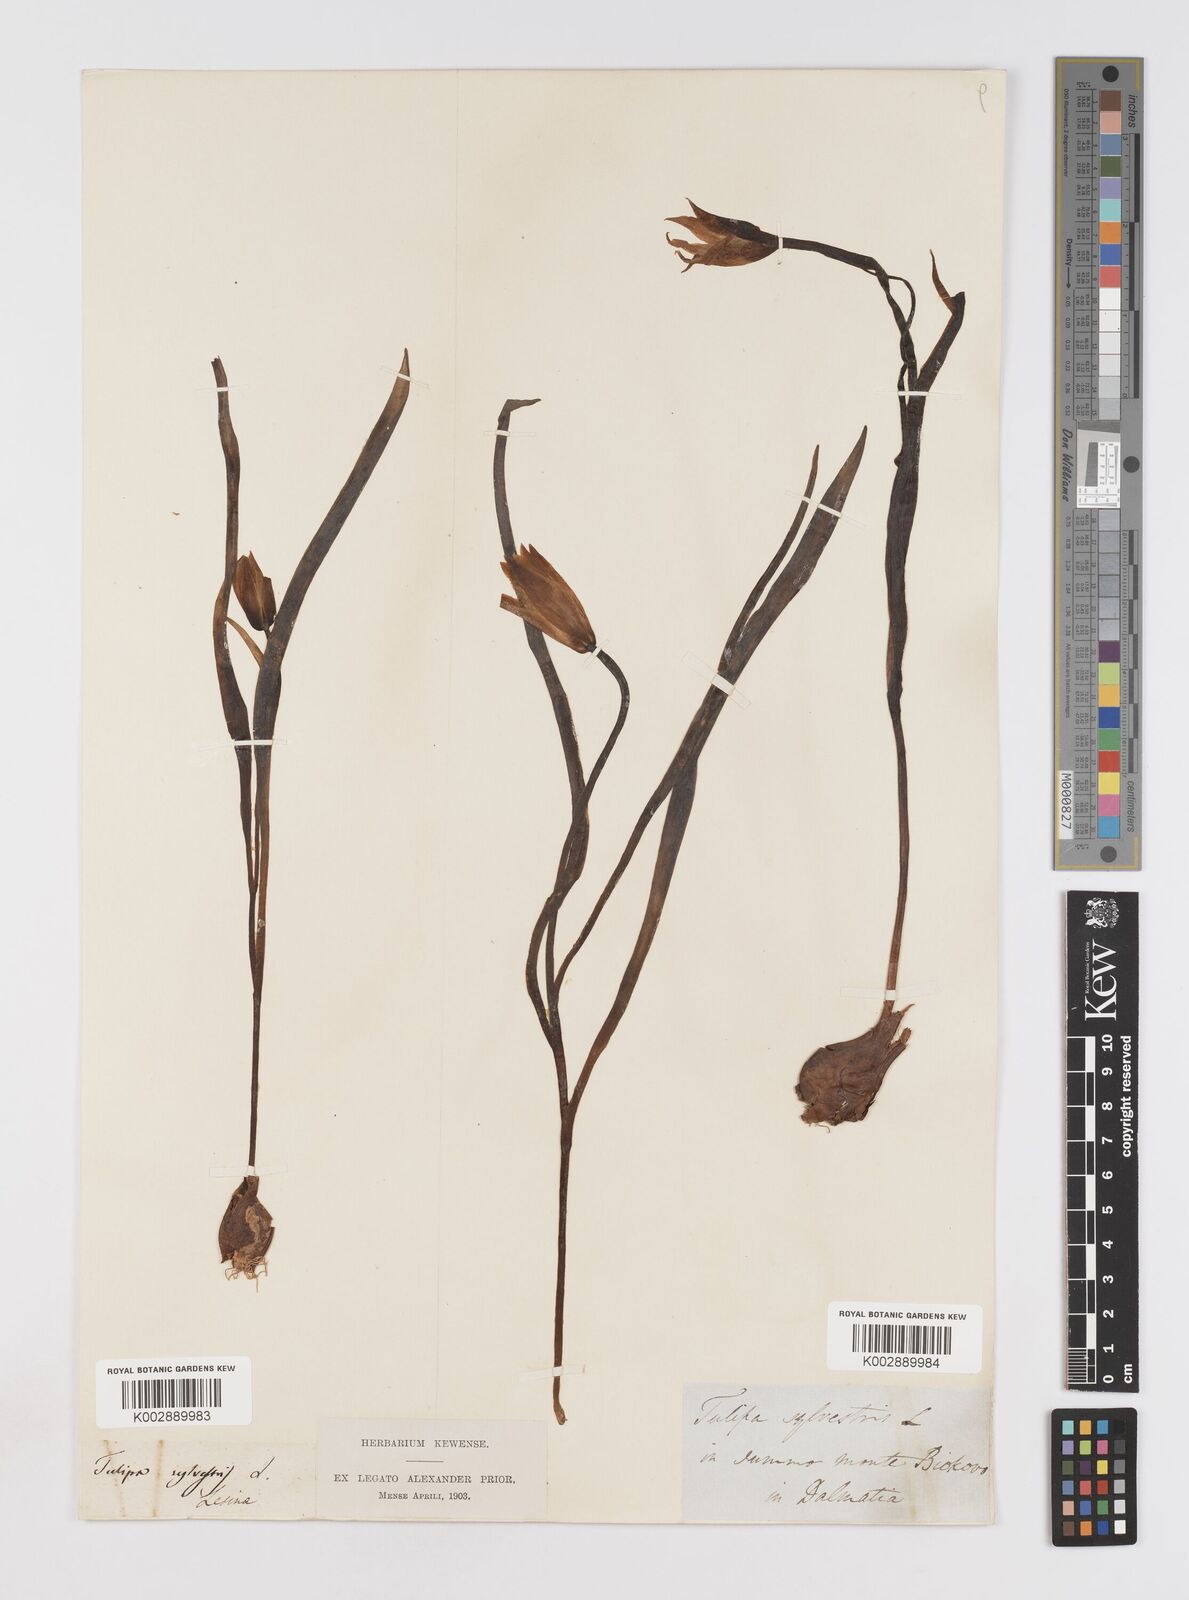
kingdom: Plantae
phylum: Tracheophyta
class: Liliopsida
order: Liliales
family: Liliaceae
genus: Tulipa
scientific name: Tulipa sylvestris
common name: Wild tulip
